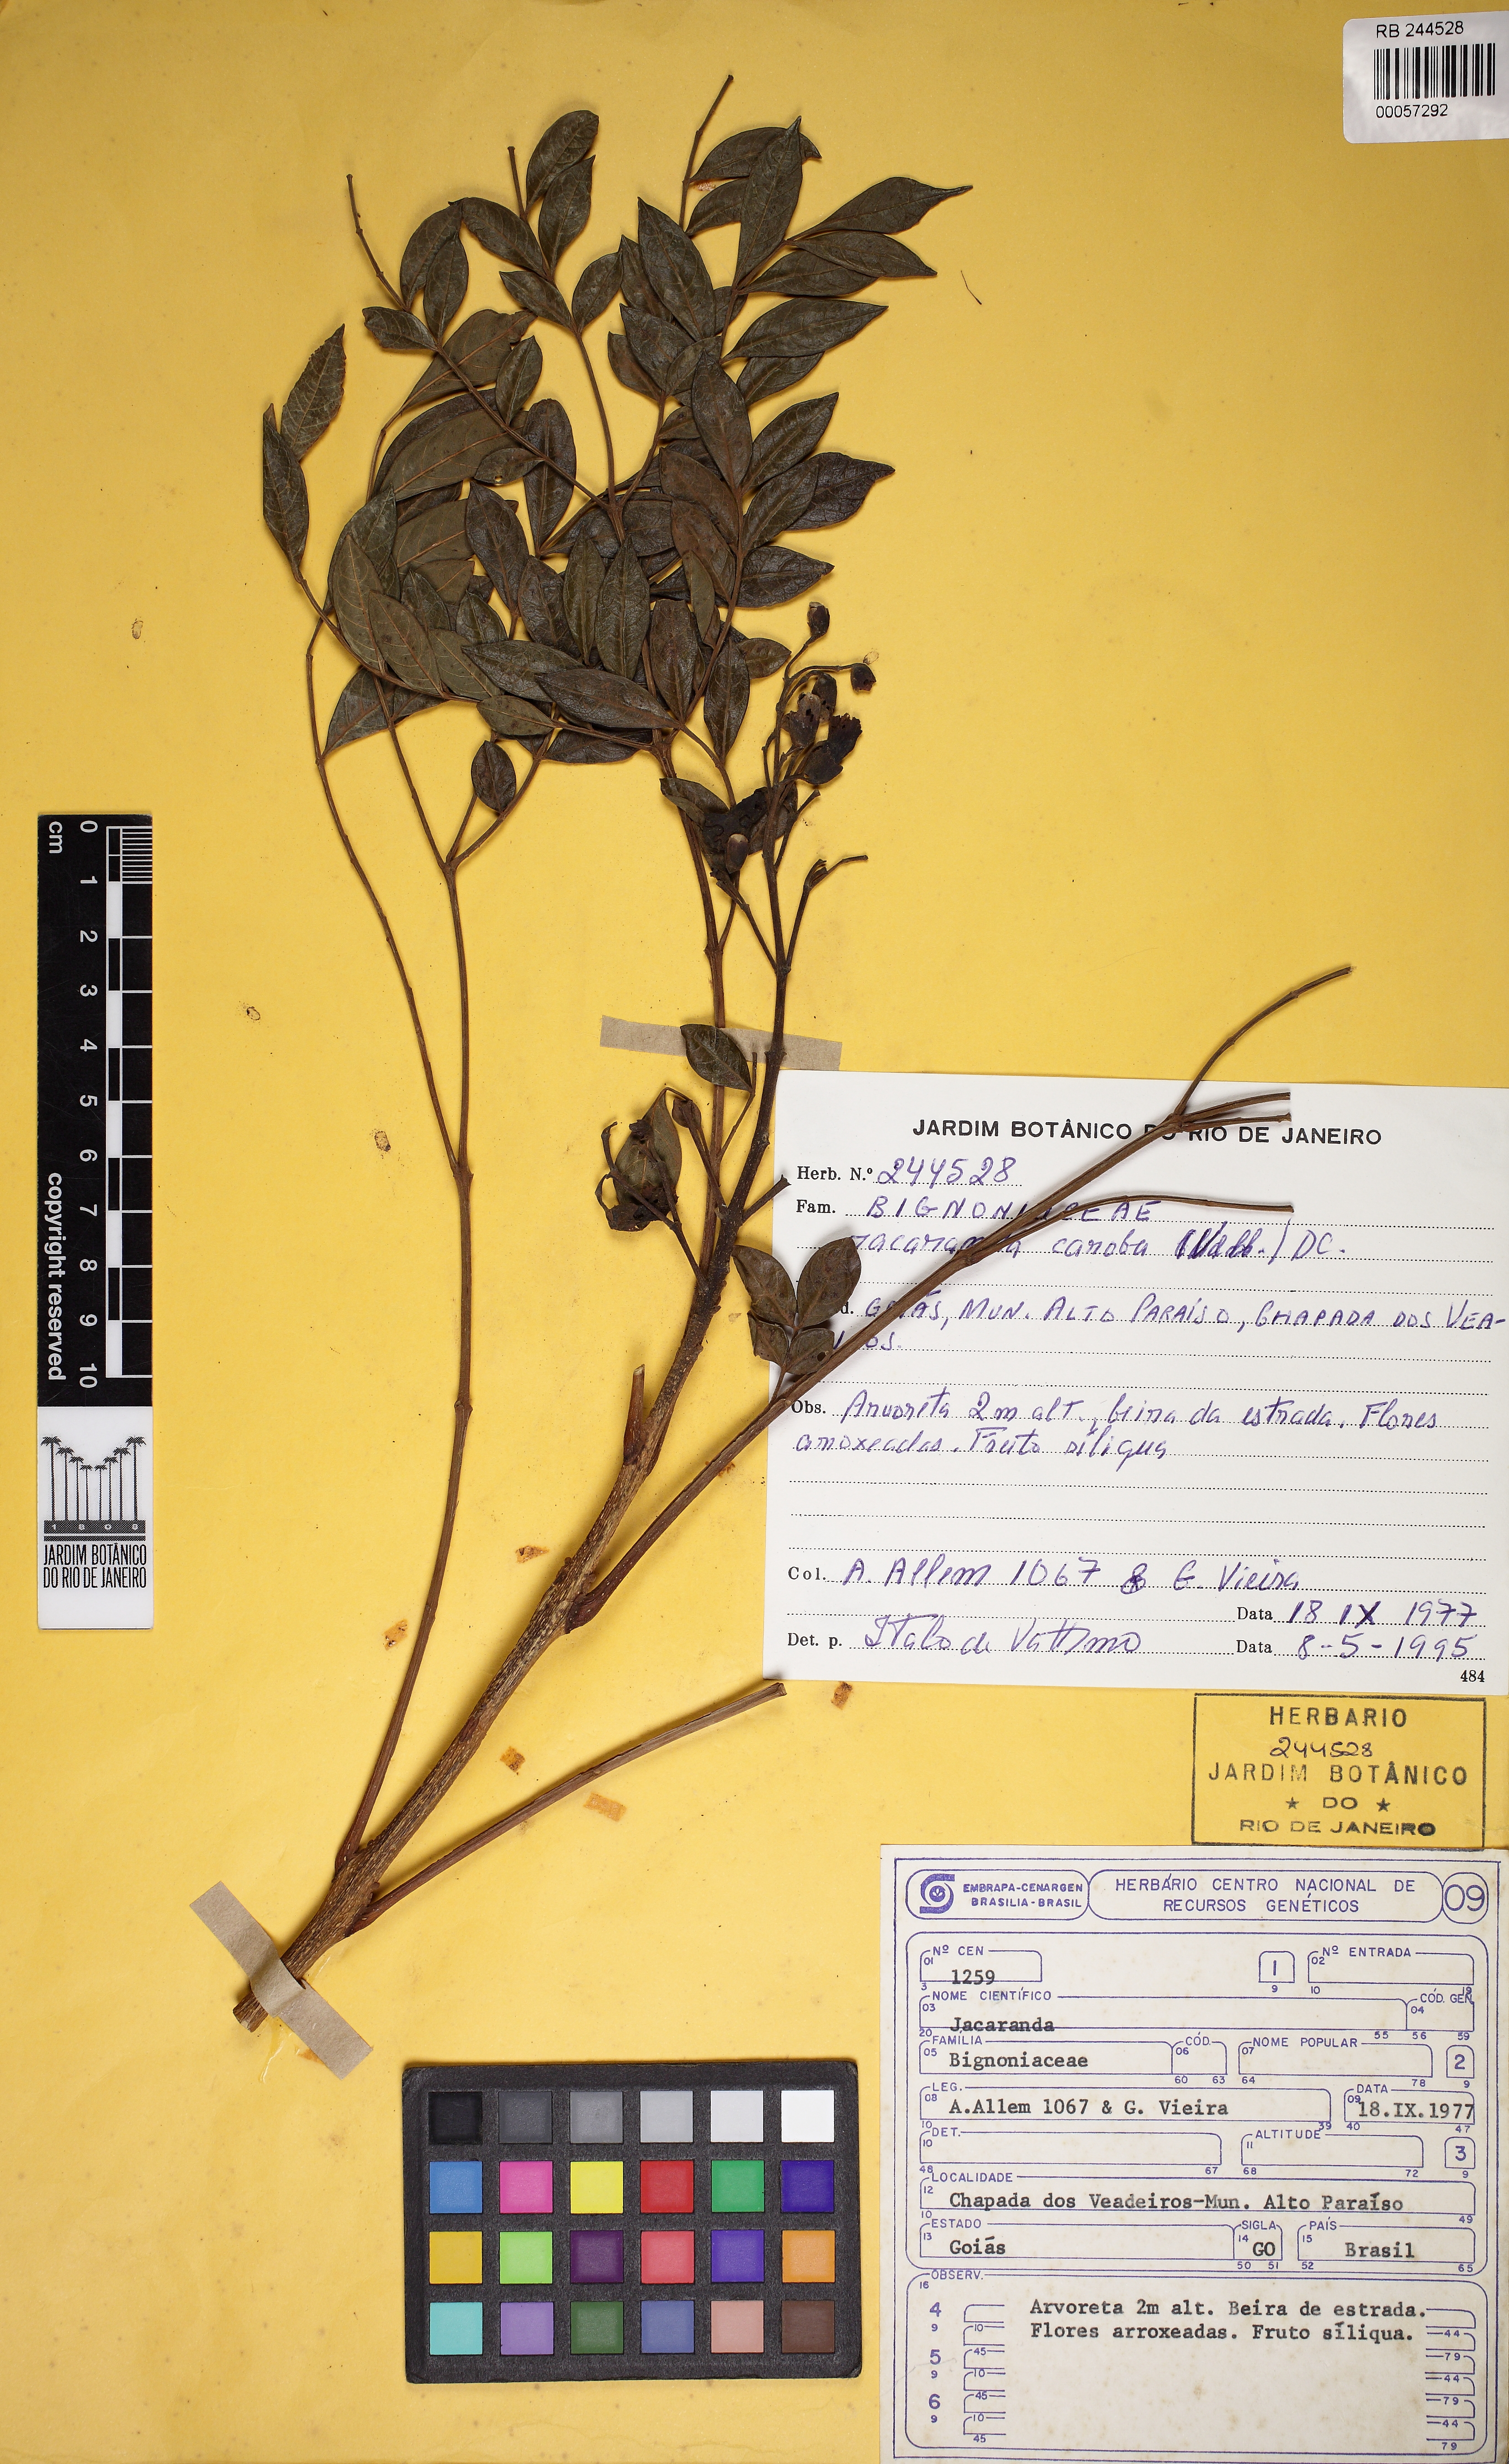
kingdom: Plantae
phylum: Tracheophyta
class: Magnoliopsida
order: Lamiales
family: Bignoniaceae
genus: Jacaranda
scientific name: Jacaranda caroba
